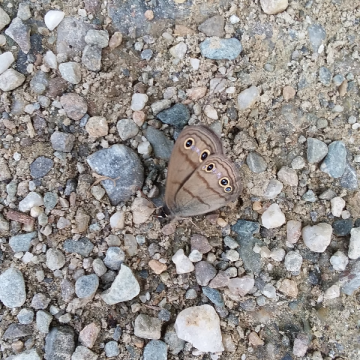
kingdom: Animalia
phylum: Arthropoda
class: Insecta
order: Lepidoptera
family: Nymphalidae
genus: Euptychia
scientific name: Euptychia cymela
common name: Little Wood Satyr
